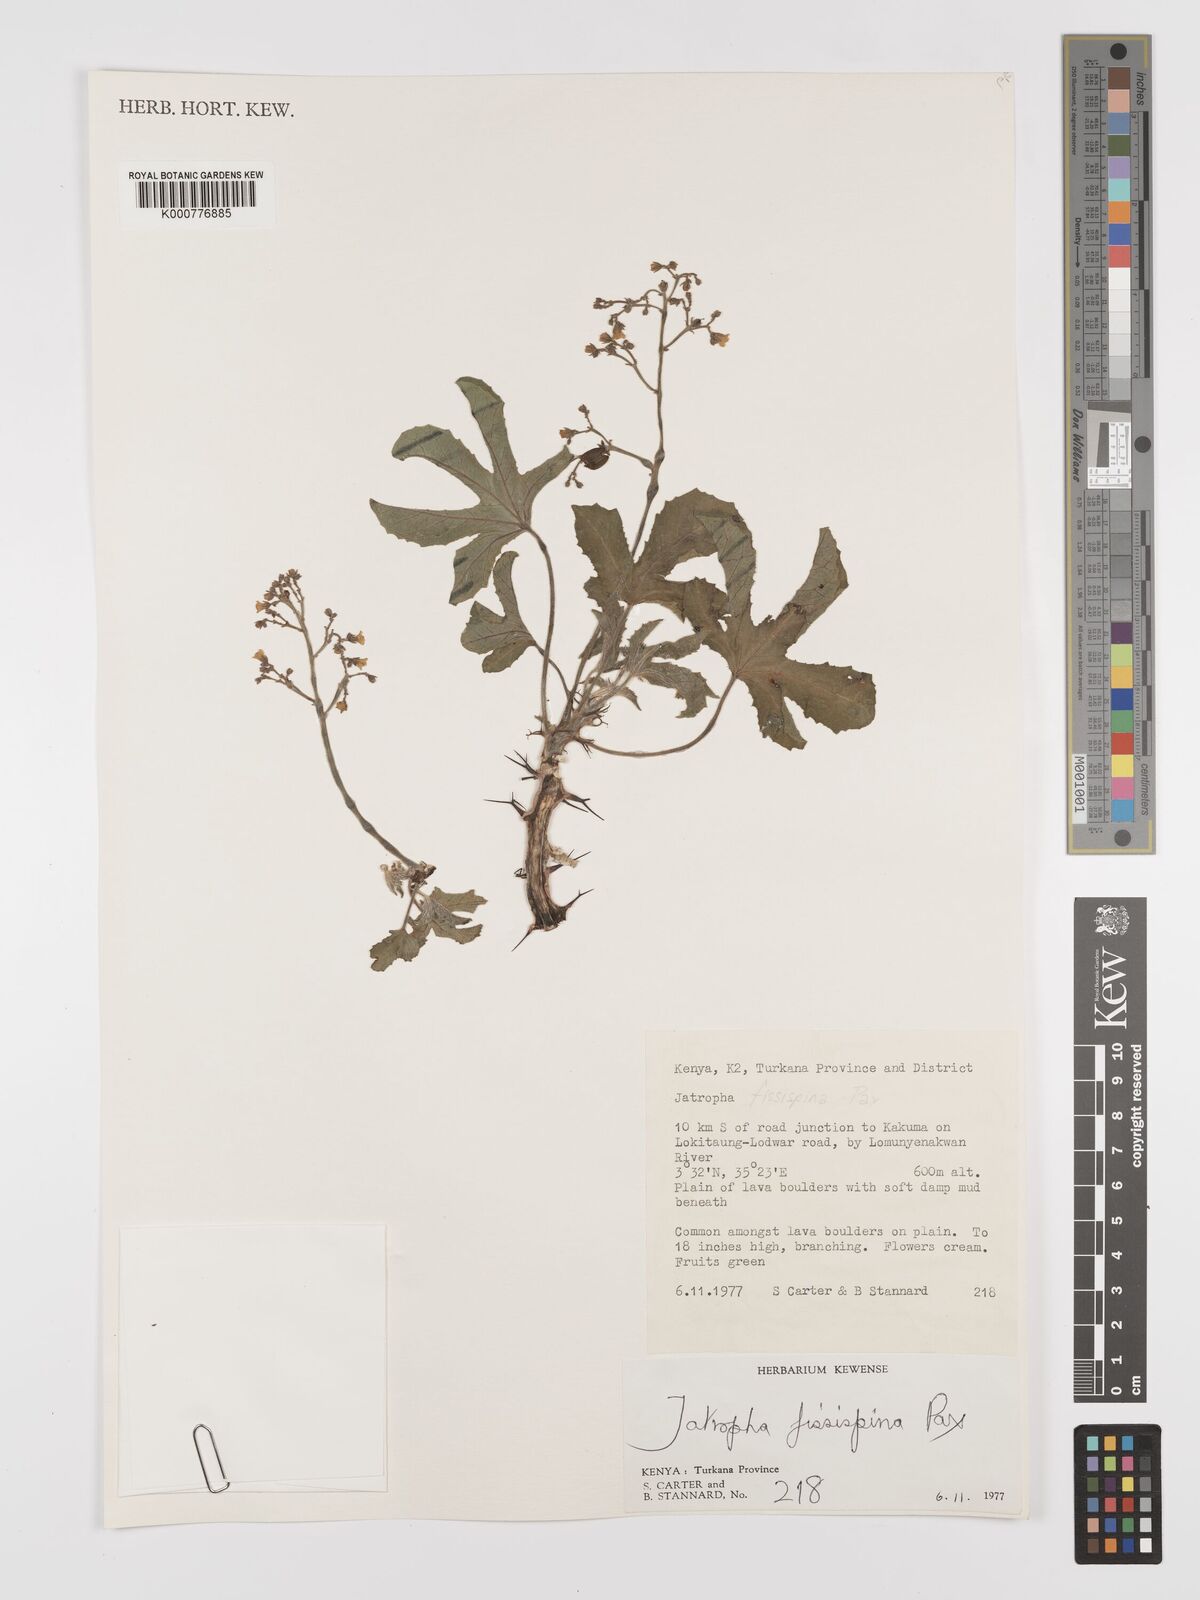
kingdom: Plantae
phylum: Tracheophyta
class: Magnoliopsida
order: Malpighiales
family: Euphorbiaceae
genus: Jatropha
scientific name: Jatropha ellenbeckii
